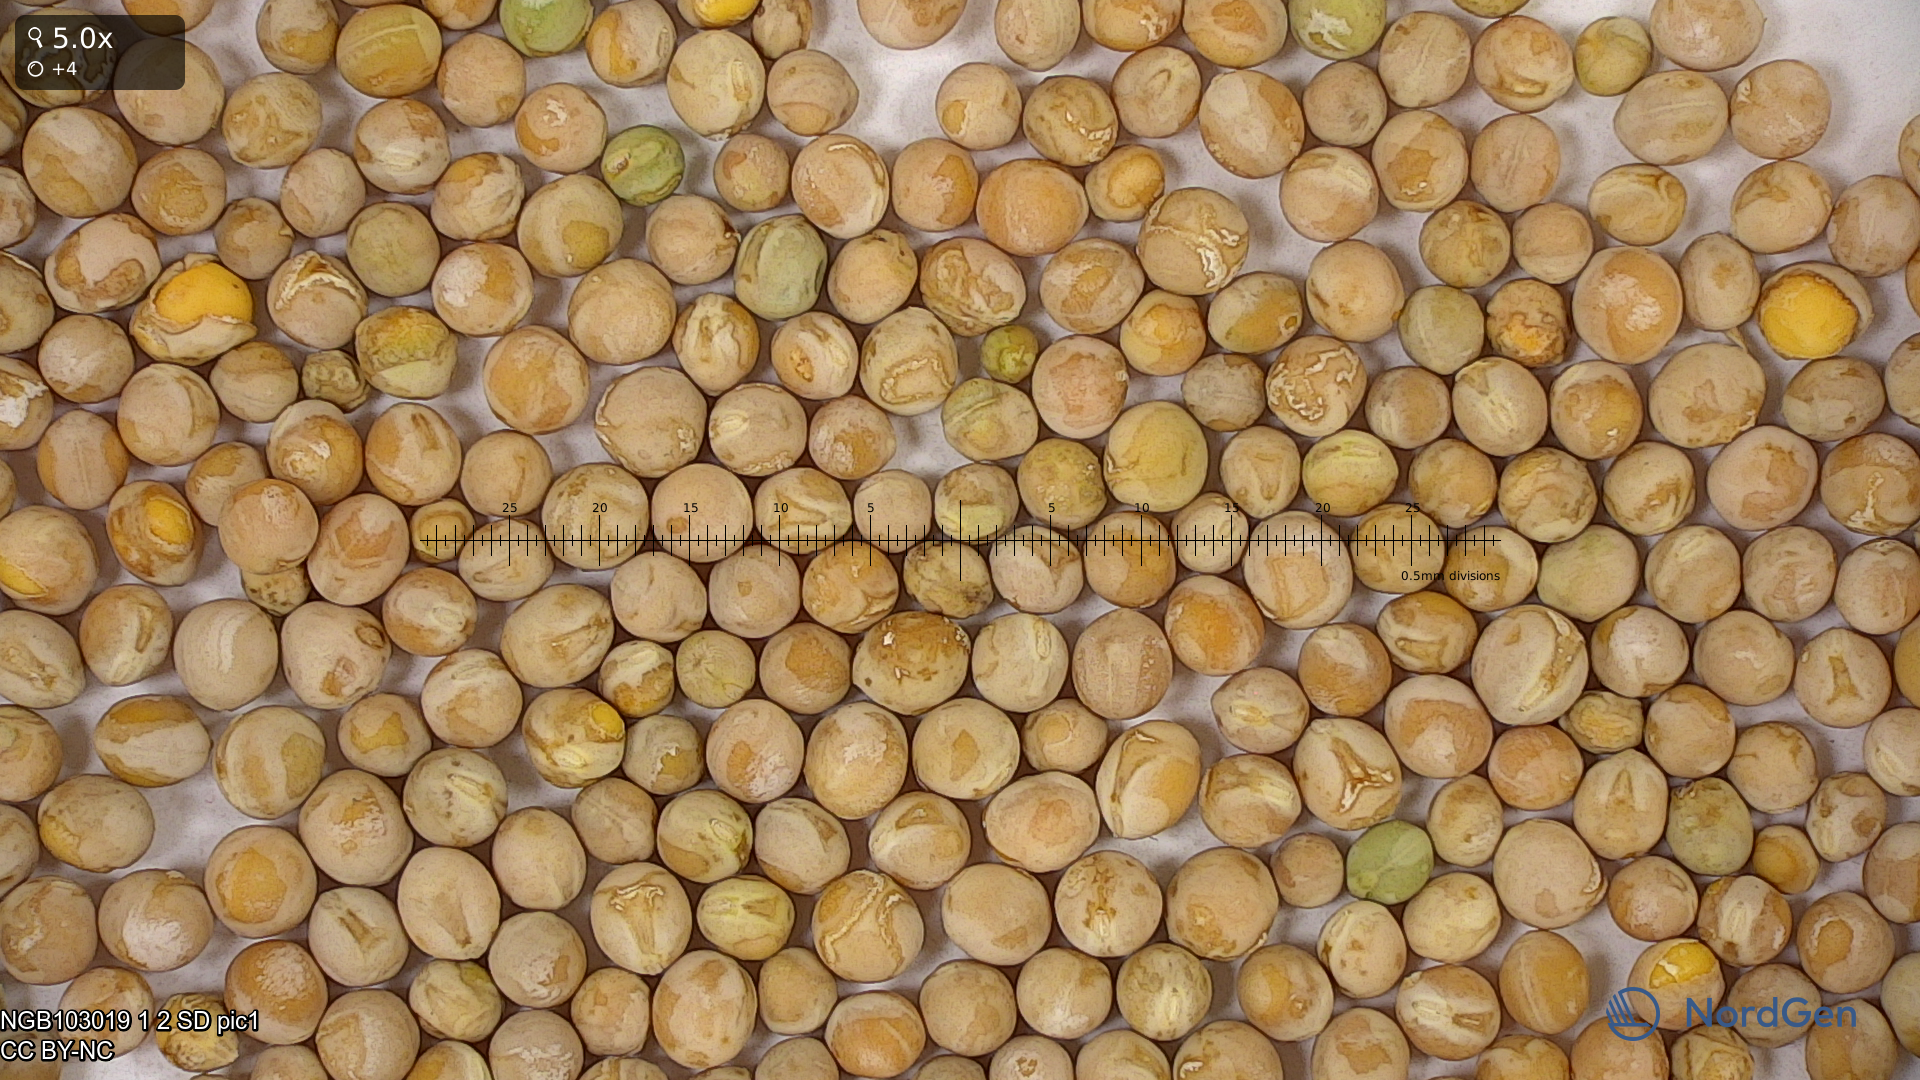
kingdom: Plantae
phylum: Tracheophyta
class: Magnoliopsida
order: Fabales
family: Fabaceae
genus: Lathyrus
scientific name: Lathyrus oleraceus
